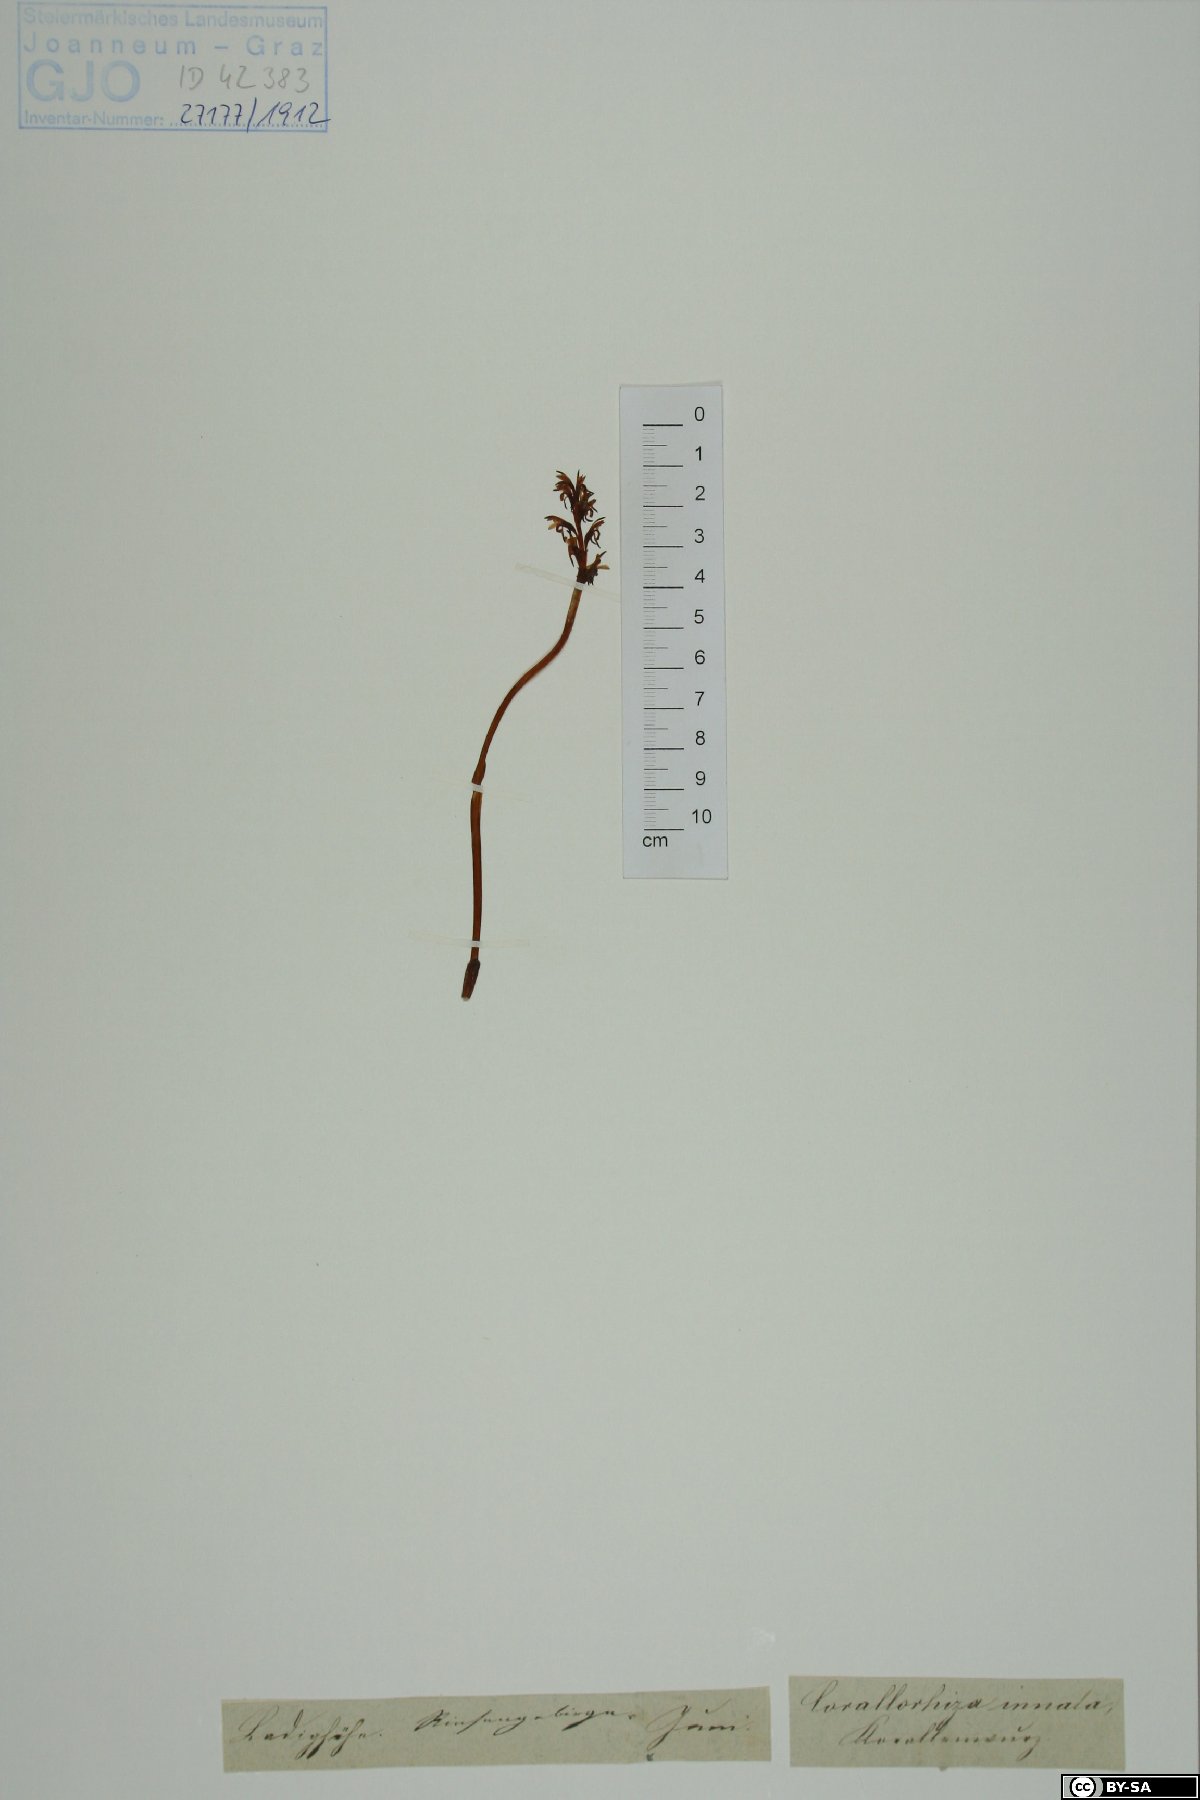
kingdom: Plantae
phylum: Tracheophyta
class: Liliopsida
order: Asparagales
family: Orchidaceae
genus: Corallorhiza
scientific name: Corallorhiza trifida
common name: Yellow coralroot
